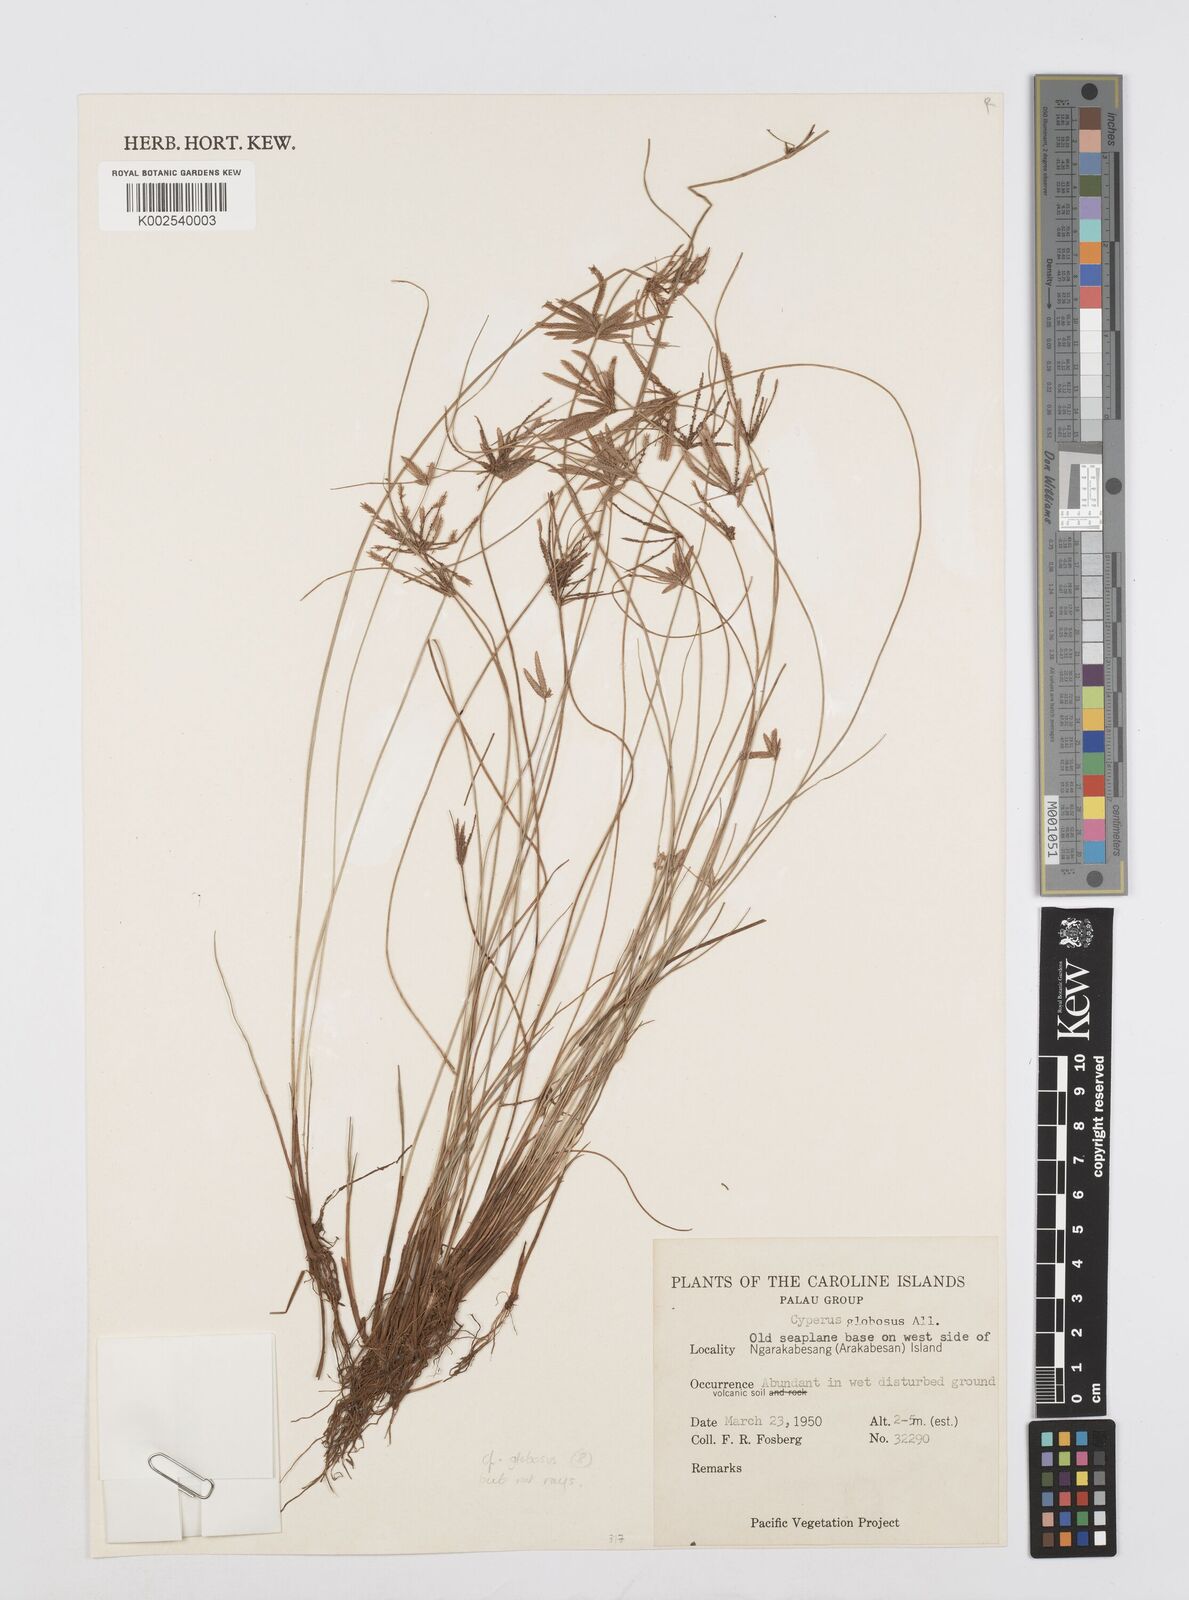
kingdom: Plantae
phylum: Tracheophyta
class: Liliopsida
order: Poales
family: Cyperaceae
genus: Cyperus
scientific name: Cyperus flavidus
